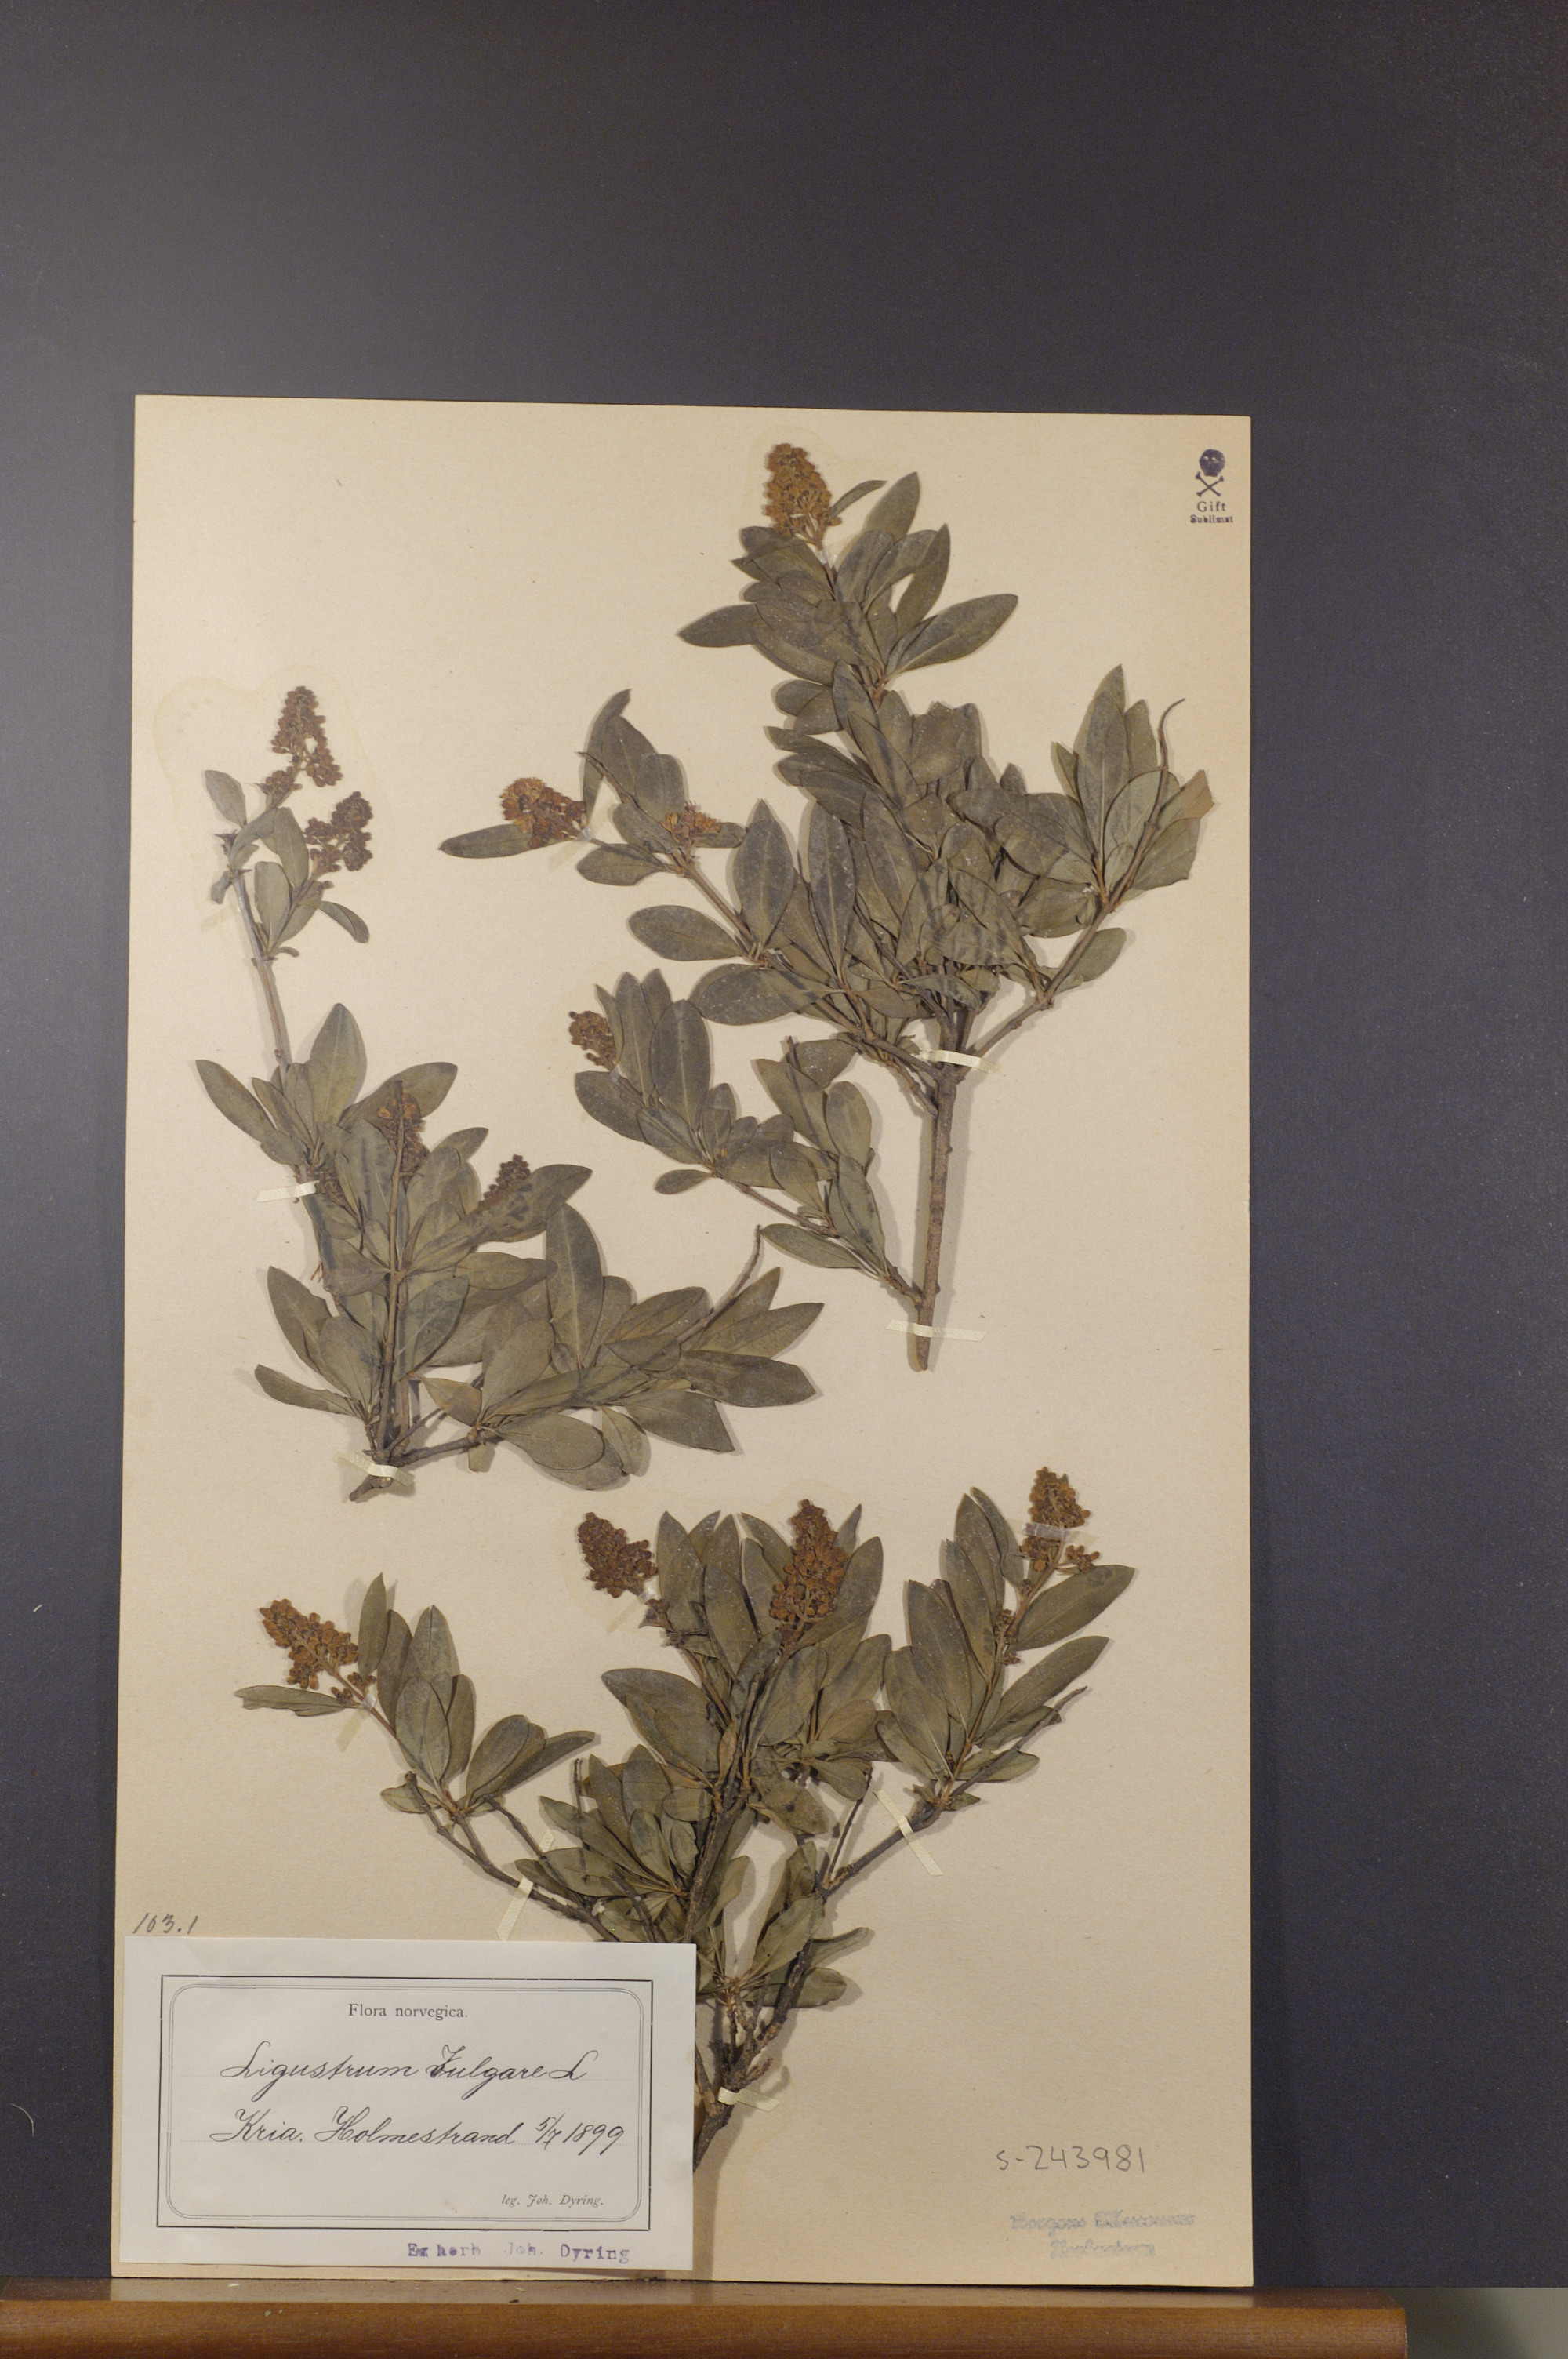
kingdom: Plantae
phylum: Tracheophyta
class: Magnoliopsida
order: Lamiales
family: Oleaceae
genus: Ligustrum
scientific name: Ligustrum vulgare
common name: Wild privet
